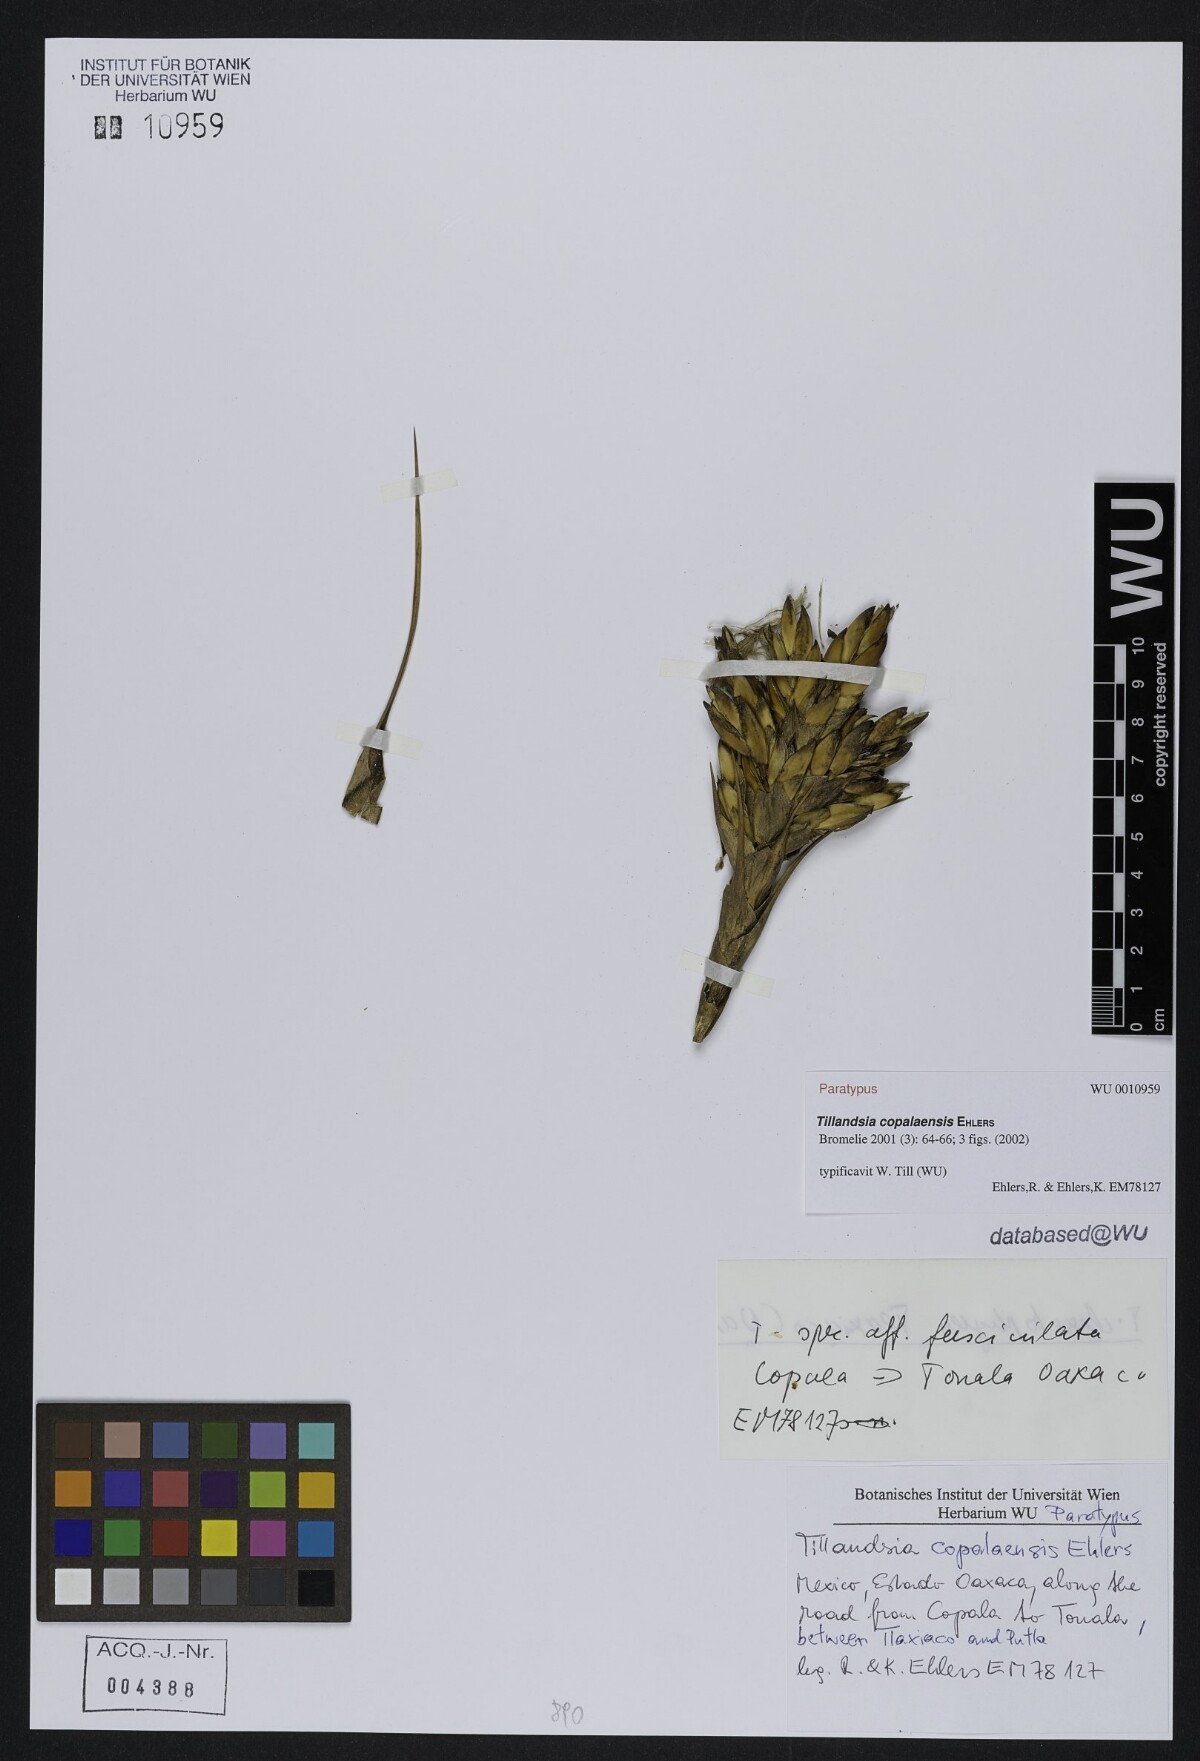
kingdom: Plantae
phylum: Tracheophyta
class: Liliopsida
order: Poales
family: Bromeliaceae
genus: Tillandsia
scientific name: Tillandsia copalaensis
